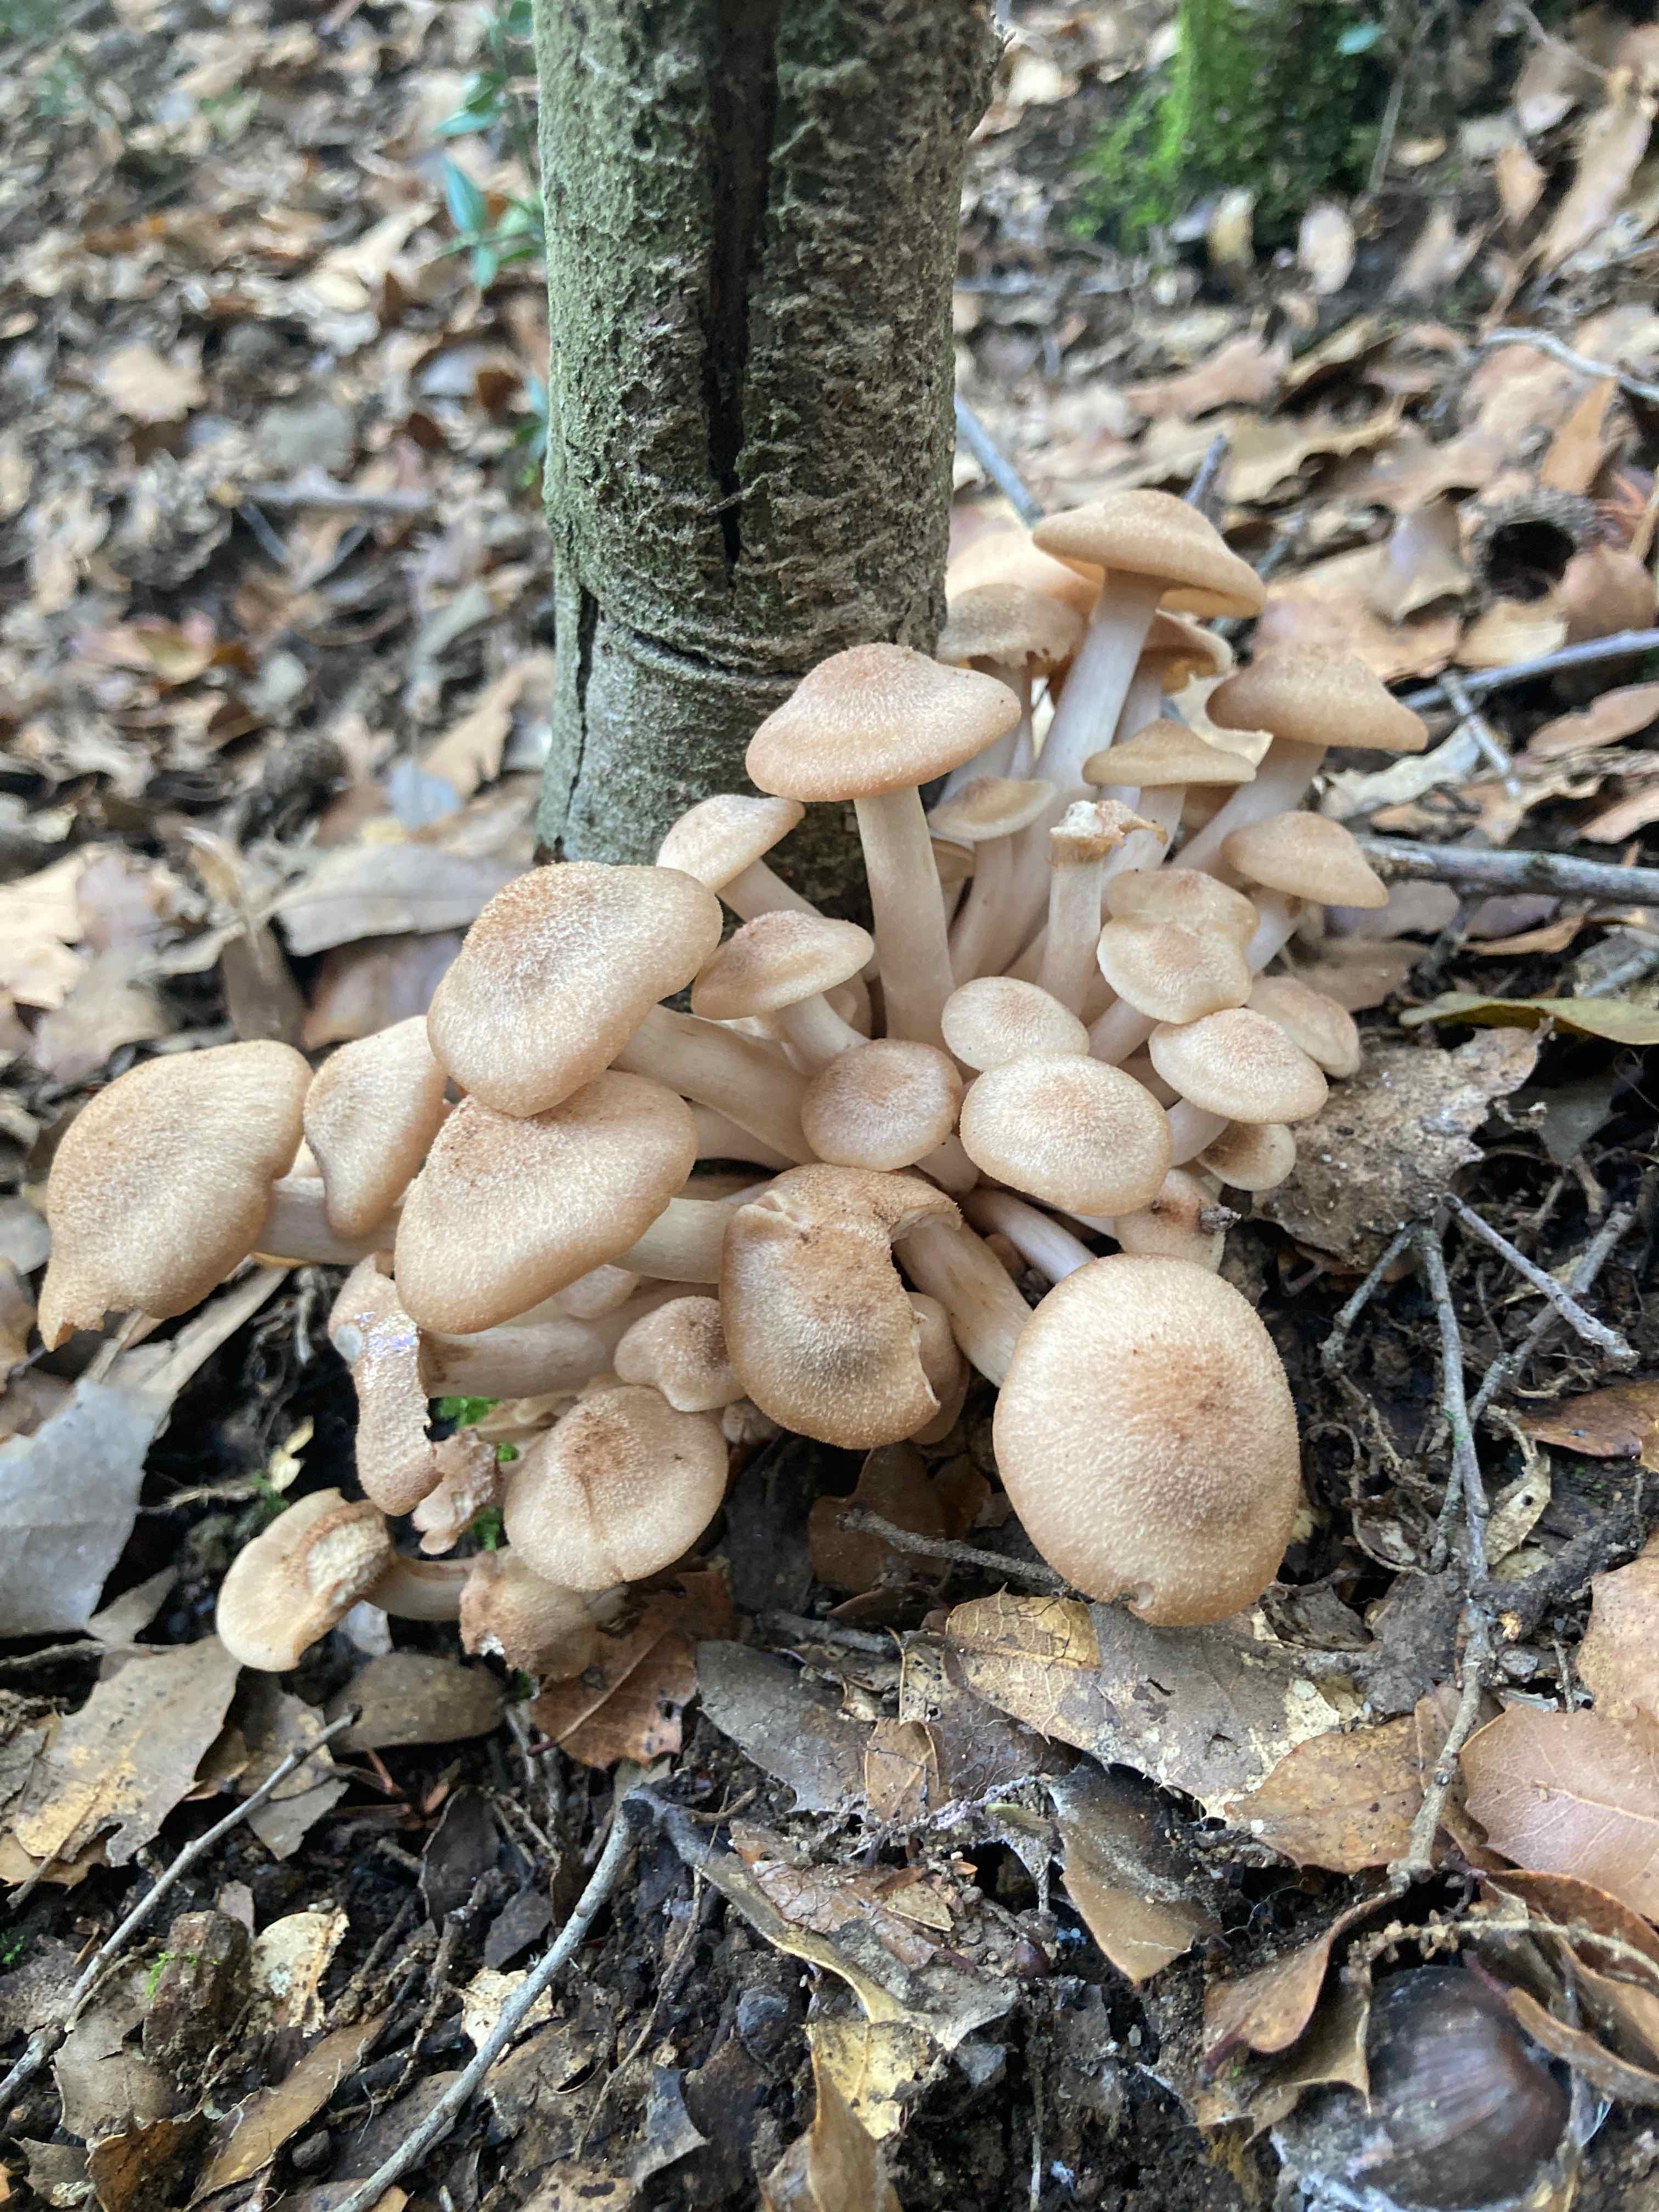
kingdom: Fungi
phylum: Basidiomycota
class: Agaricomycetes
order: Agaricales
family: Physalacriaceae
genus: Desarmillaria
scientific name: Desarmillaria tabescens
